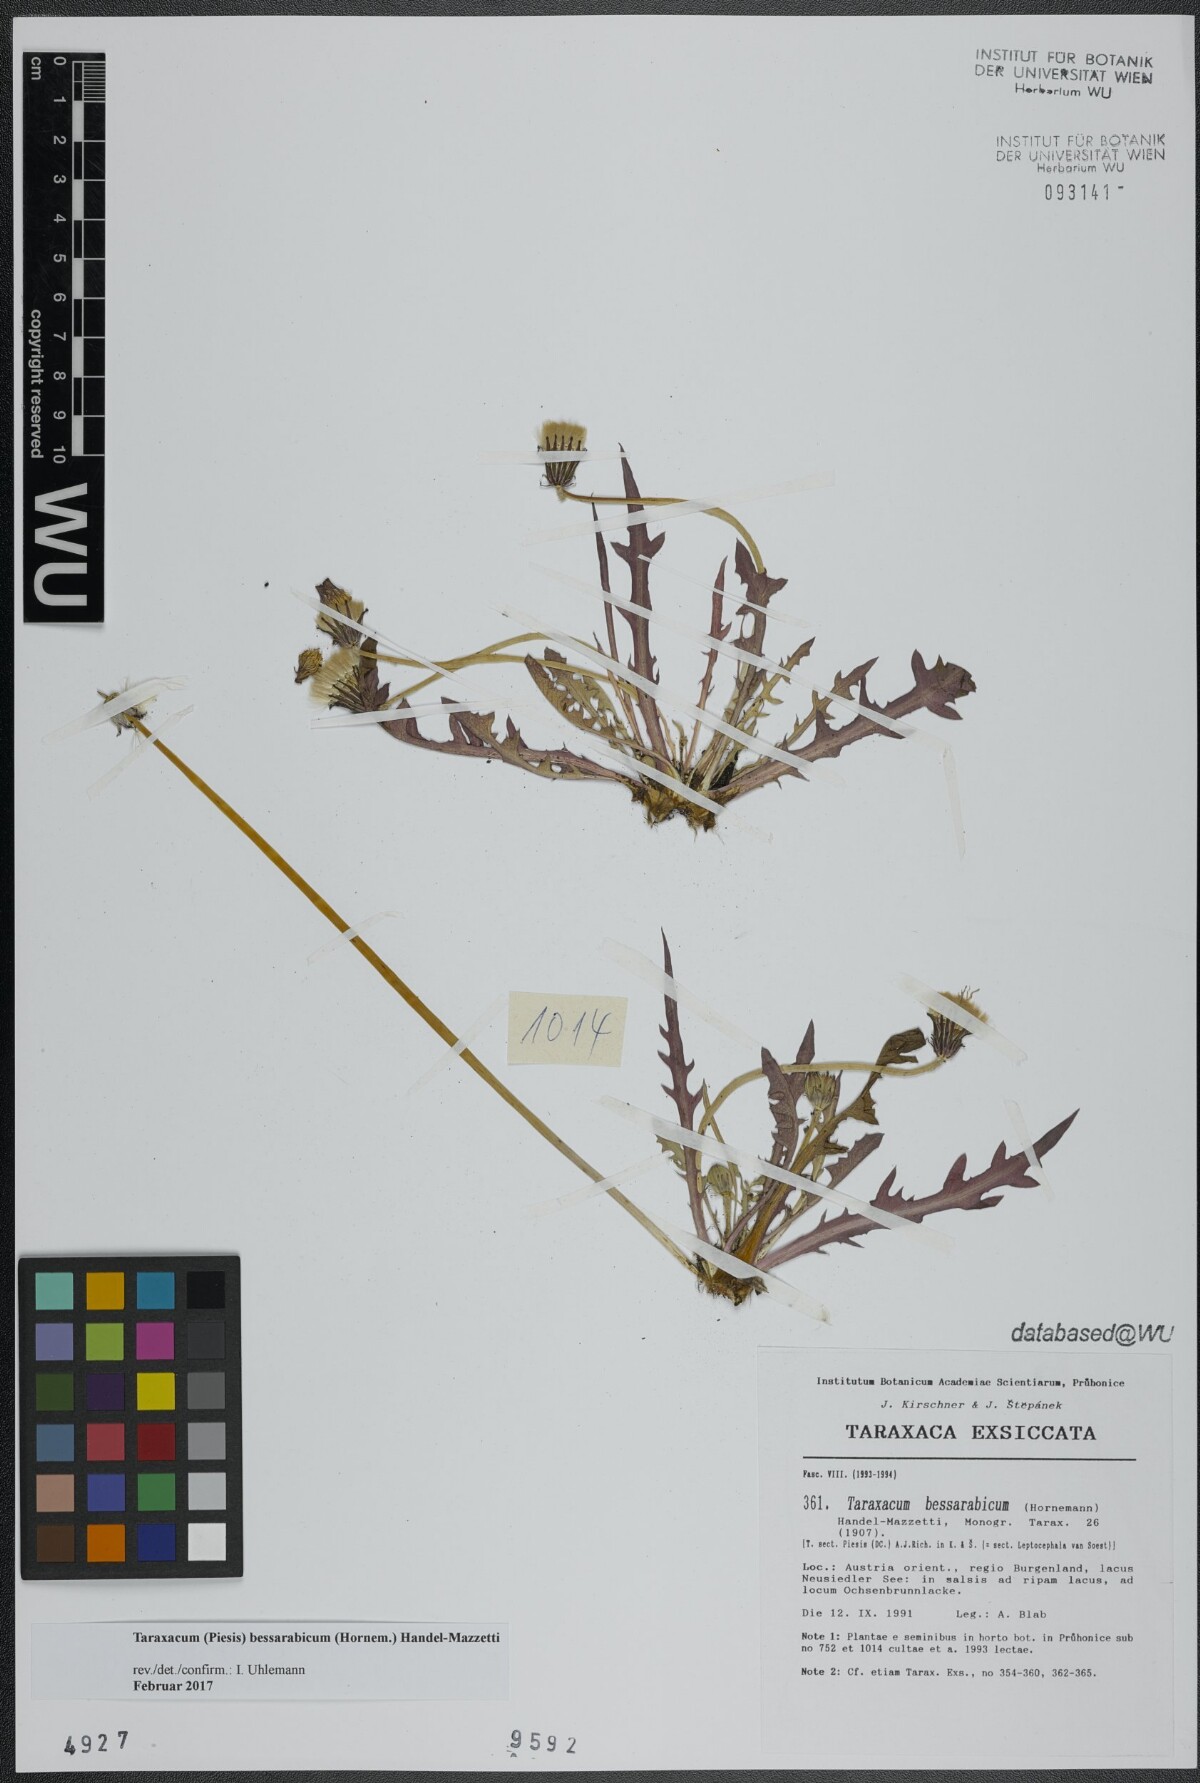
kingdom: Plantae
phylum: Tracheophyta
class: Magnoliopsida
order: Asterales
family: Asteraceae
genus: Taraxacum
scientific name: Taraxacum bessarabicum
